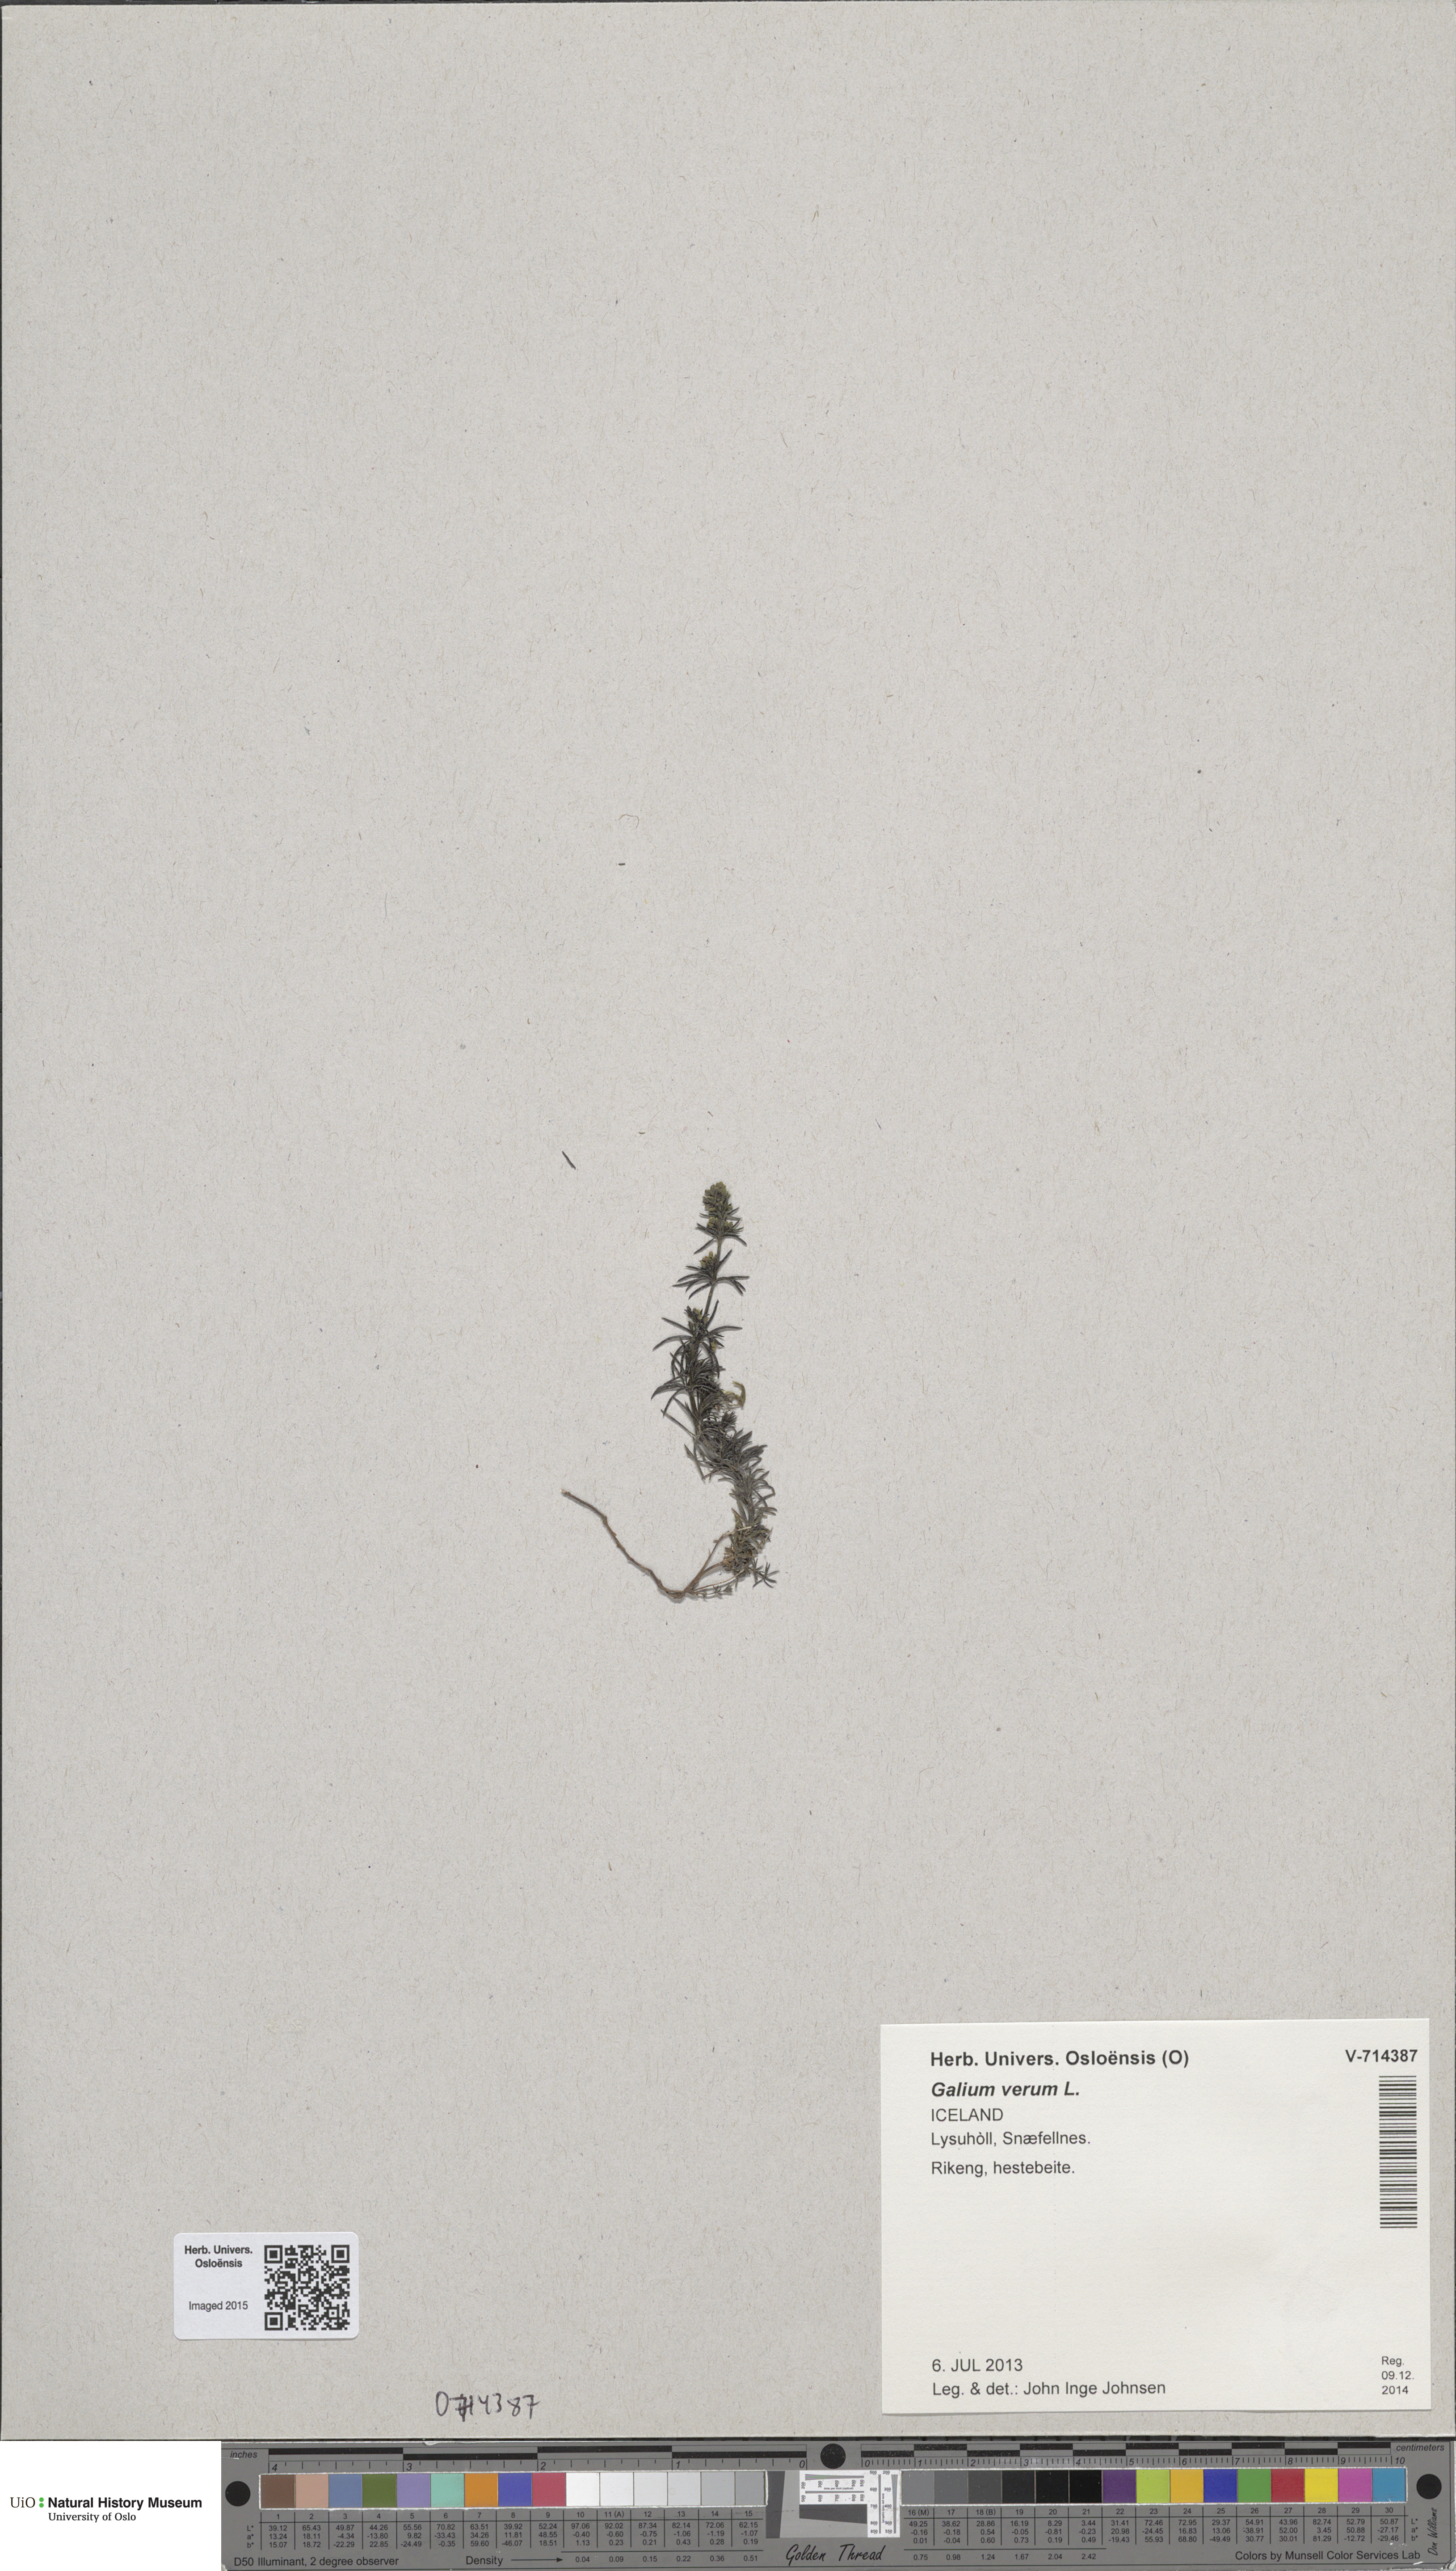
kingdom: Plantae
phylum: Tracheophyta
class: Magnoliopsida
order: Gentianales
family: Rubiaceae
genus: Galium
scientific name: Galium verum
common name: Lady's bedstraw
